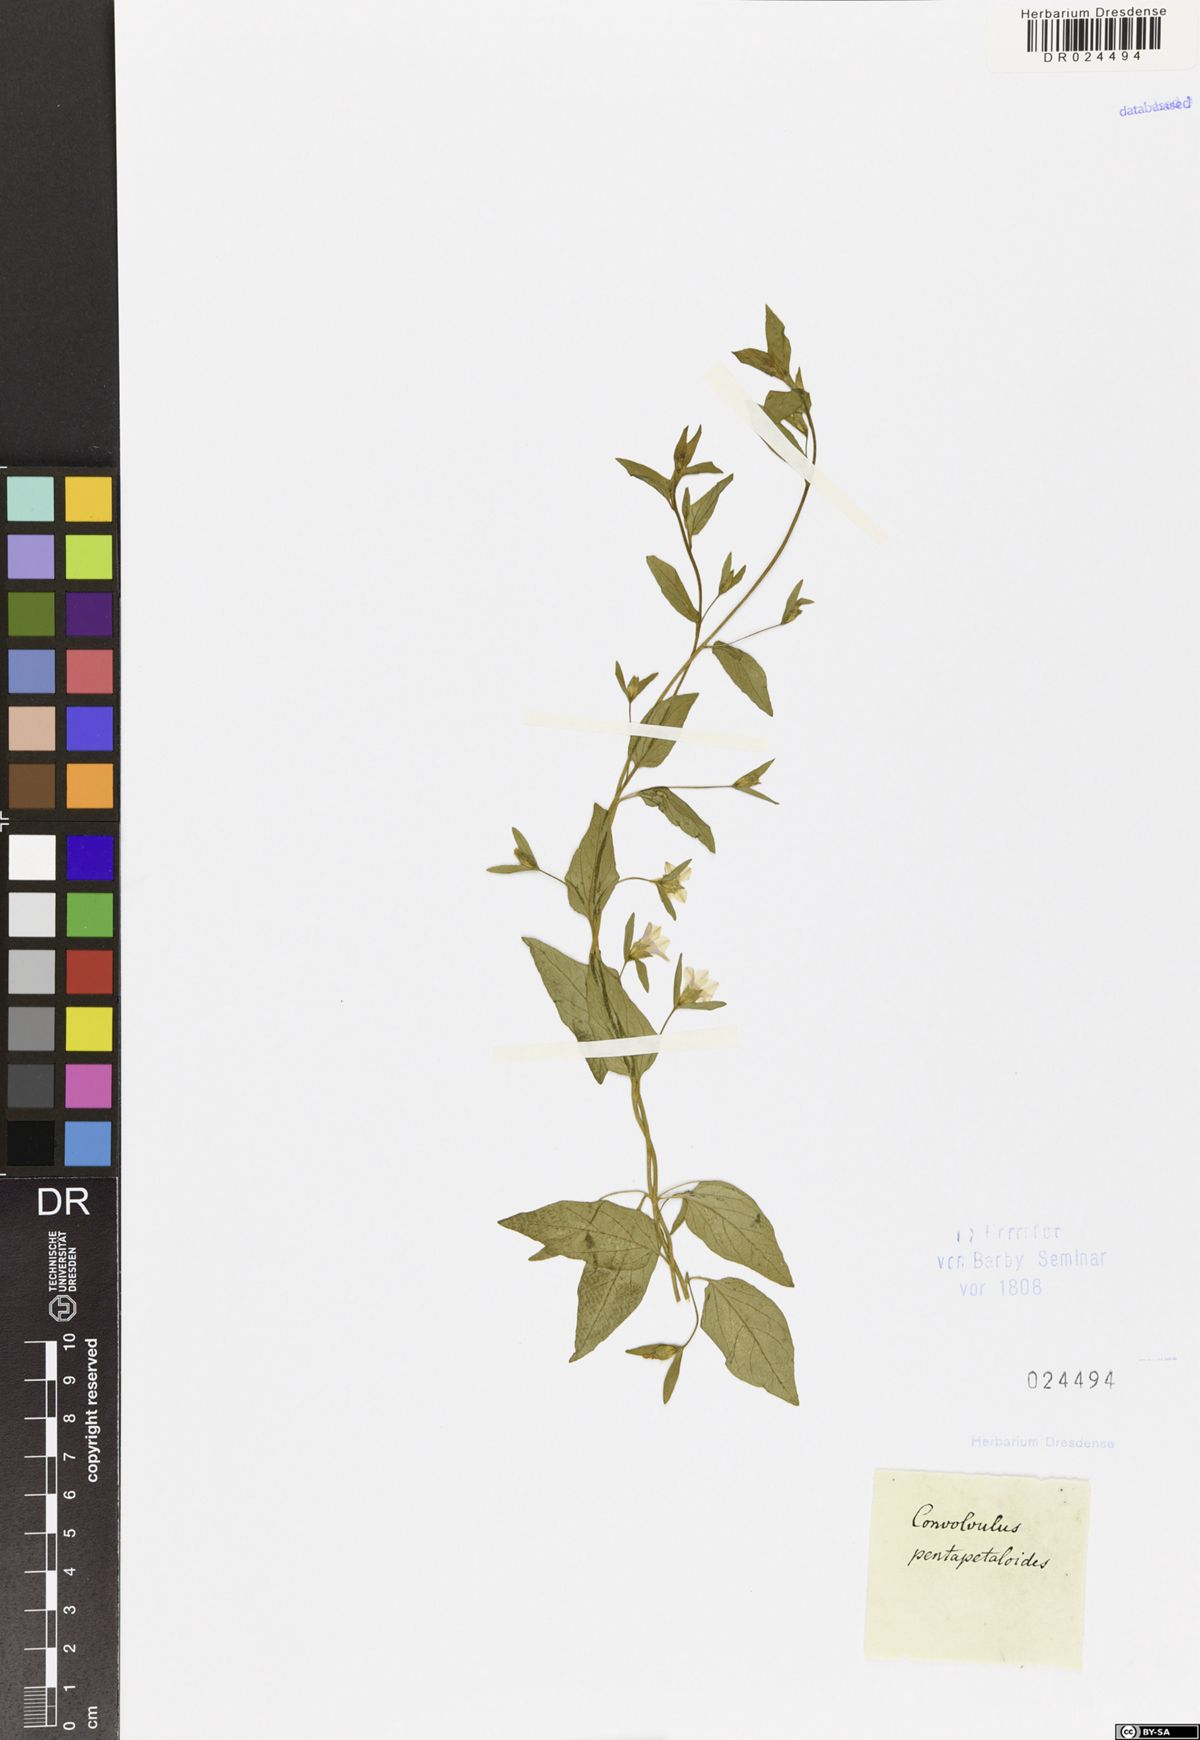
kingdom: Plantae
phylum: Tracheophyta
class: Magnoliopsida
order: Solanales
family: Convolvulaceae
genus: Convolvulus
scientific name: Convolvulus pentapetaloides
